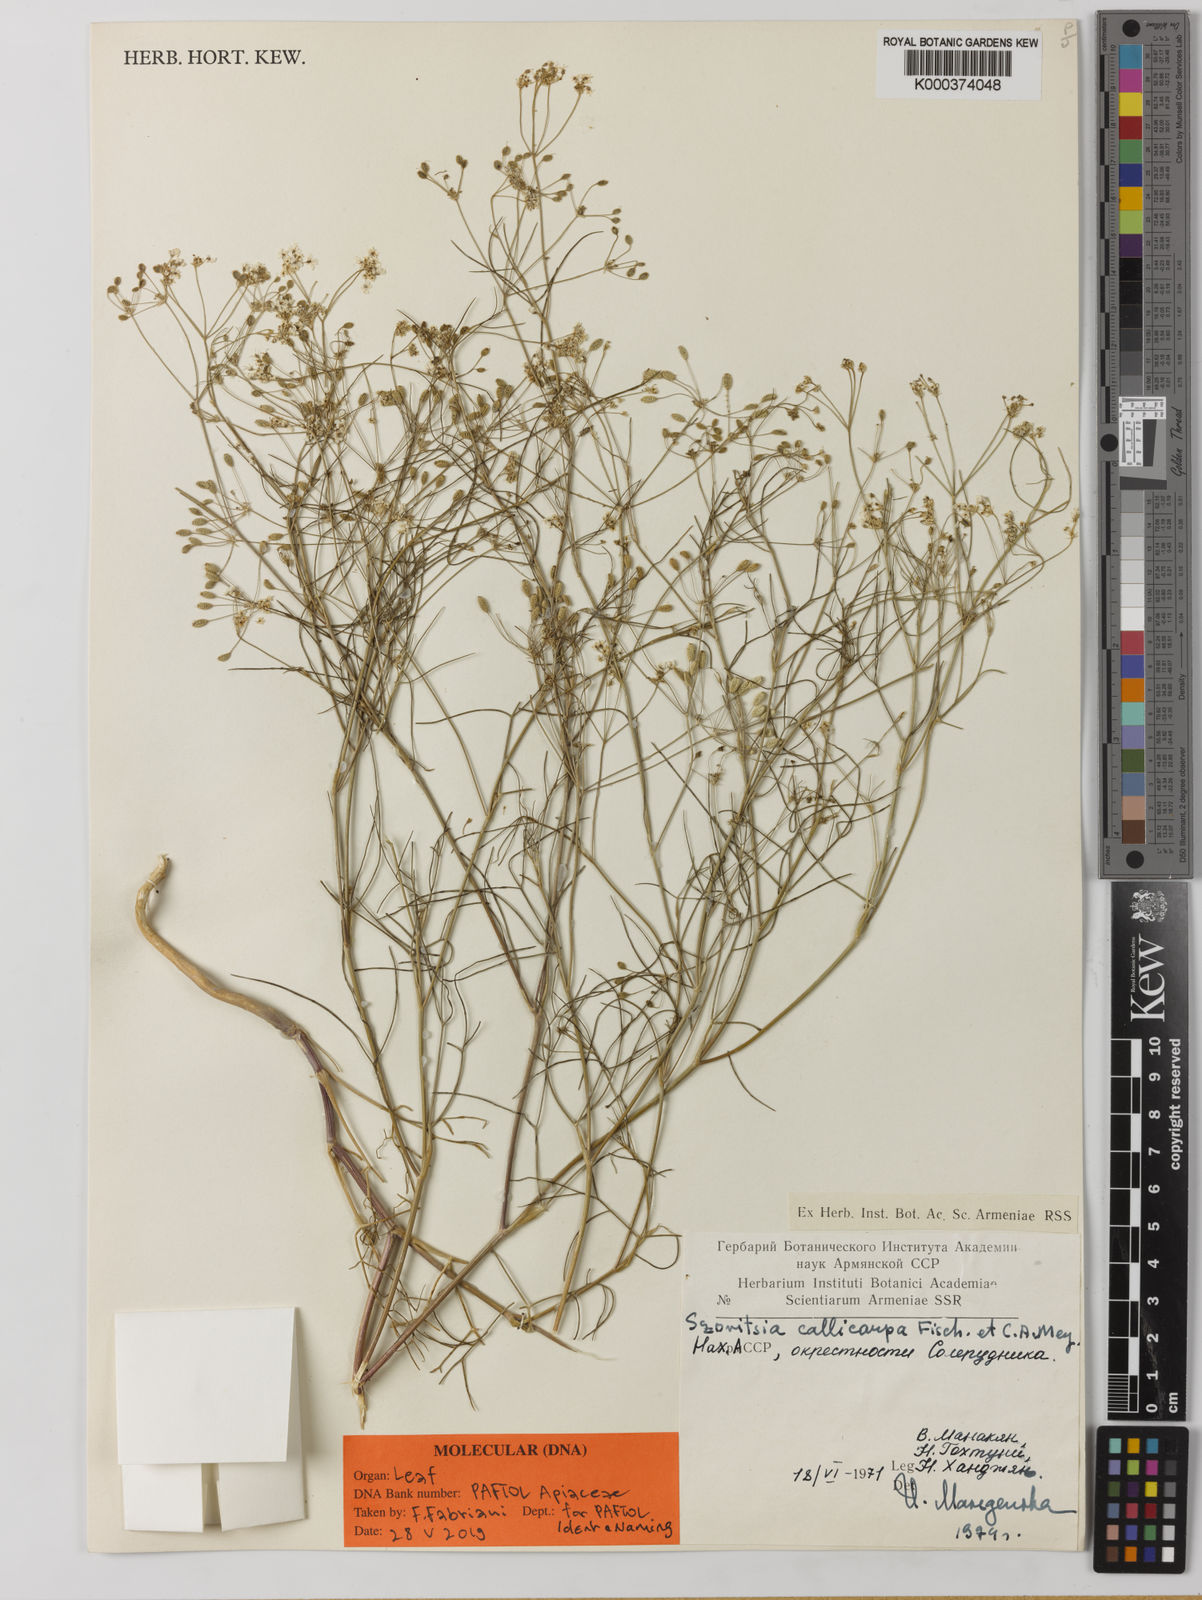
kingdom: Plantae
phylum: Tracheophyta
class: Magnoliopsida
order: Apiales
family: Apiaceae
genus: Szovitsia
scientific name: Szovitsia callicarpa
